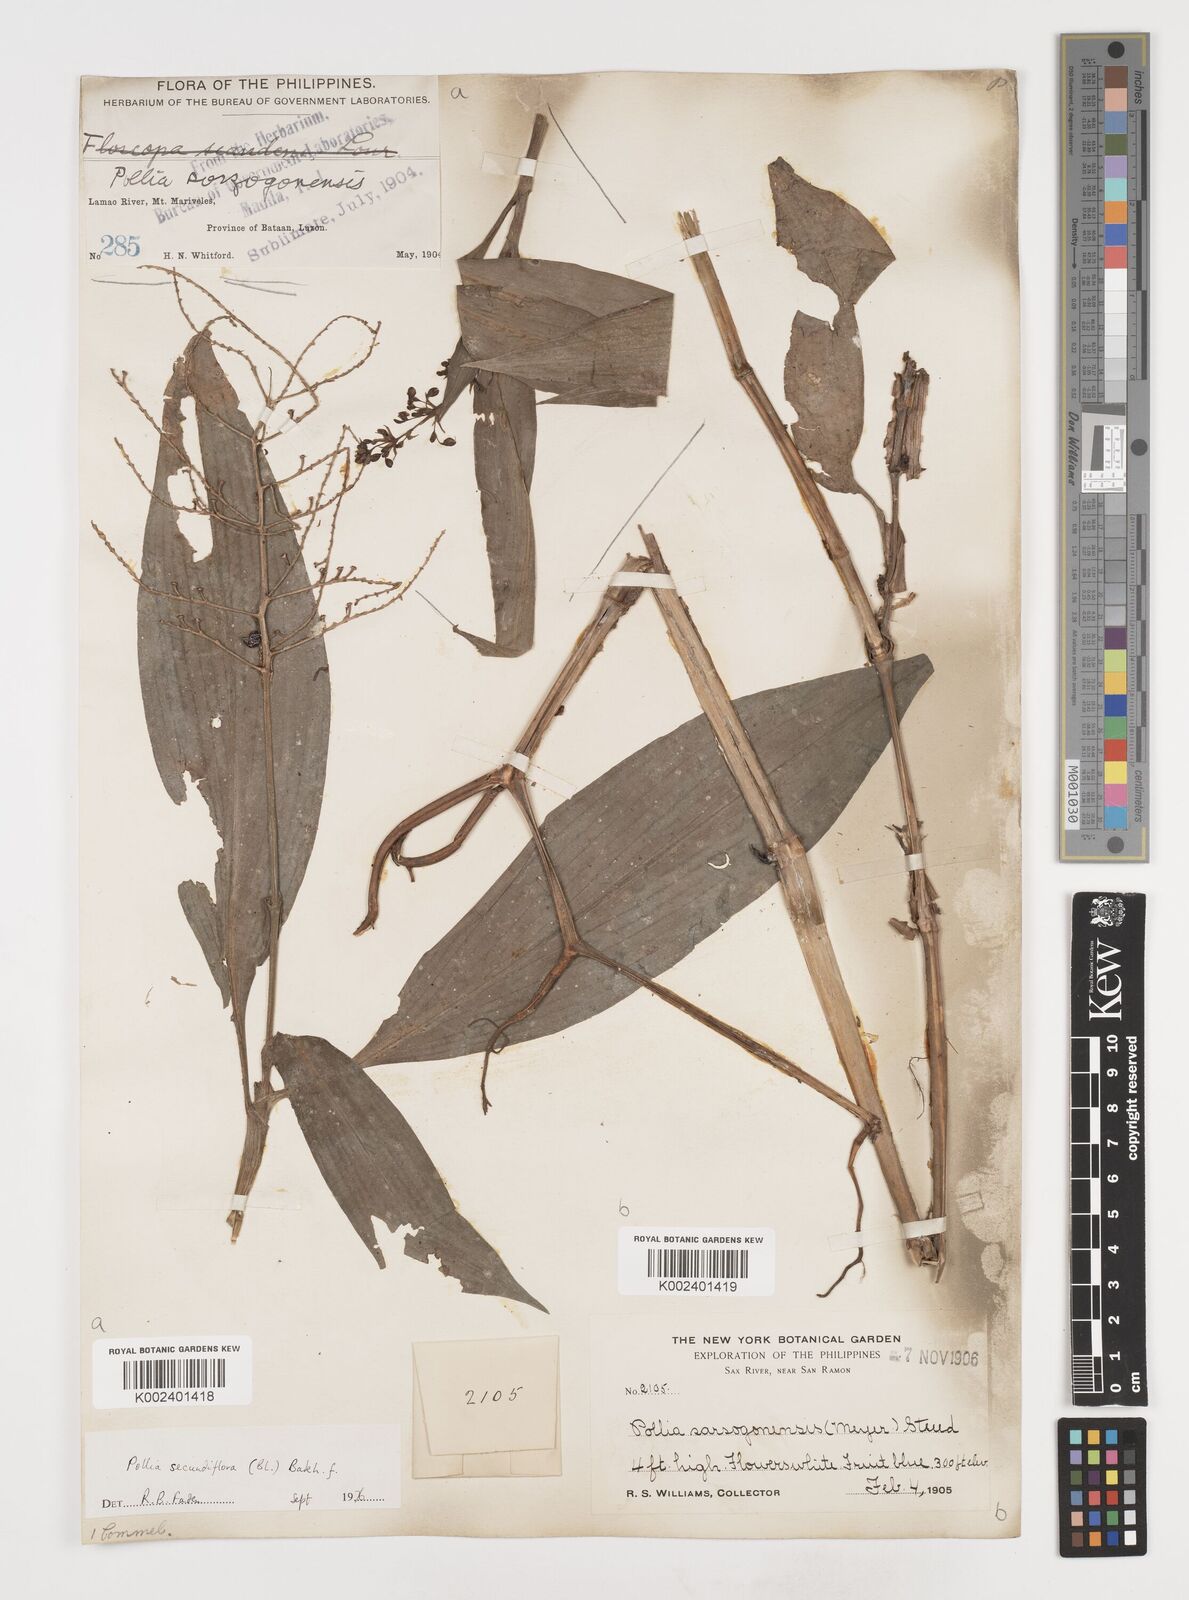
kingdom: Plantae
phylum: Tracheophyta
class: Liliopsida
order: Commelinales
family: Commelinaceae
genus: Pollia
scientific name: Pollia secundiflora
